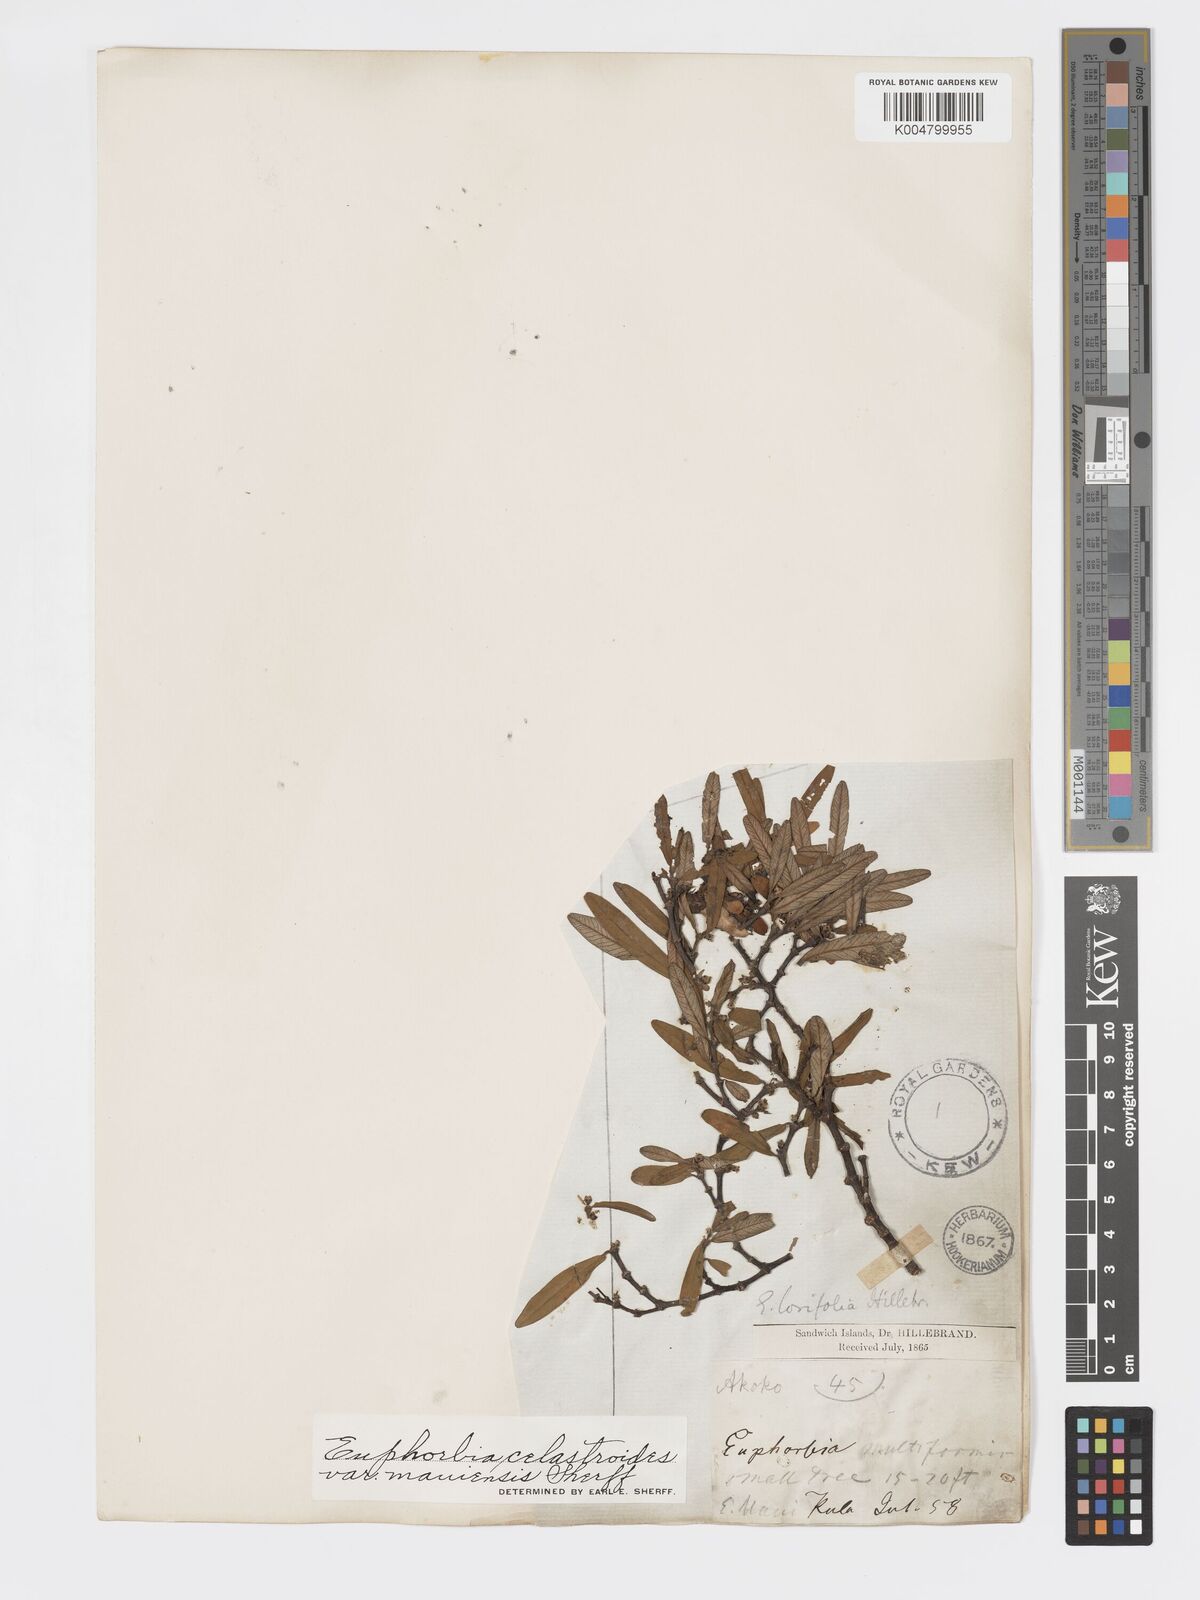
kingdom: Plantae
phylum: Tracheophyta
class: Magnoliopsida
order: Malpighiales
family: Euphorbiaceae
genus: Euphorbia
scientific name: Euphorbia celastroides
